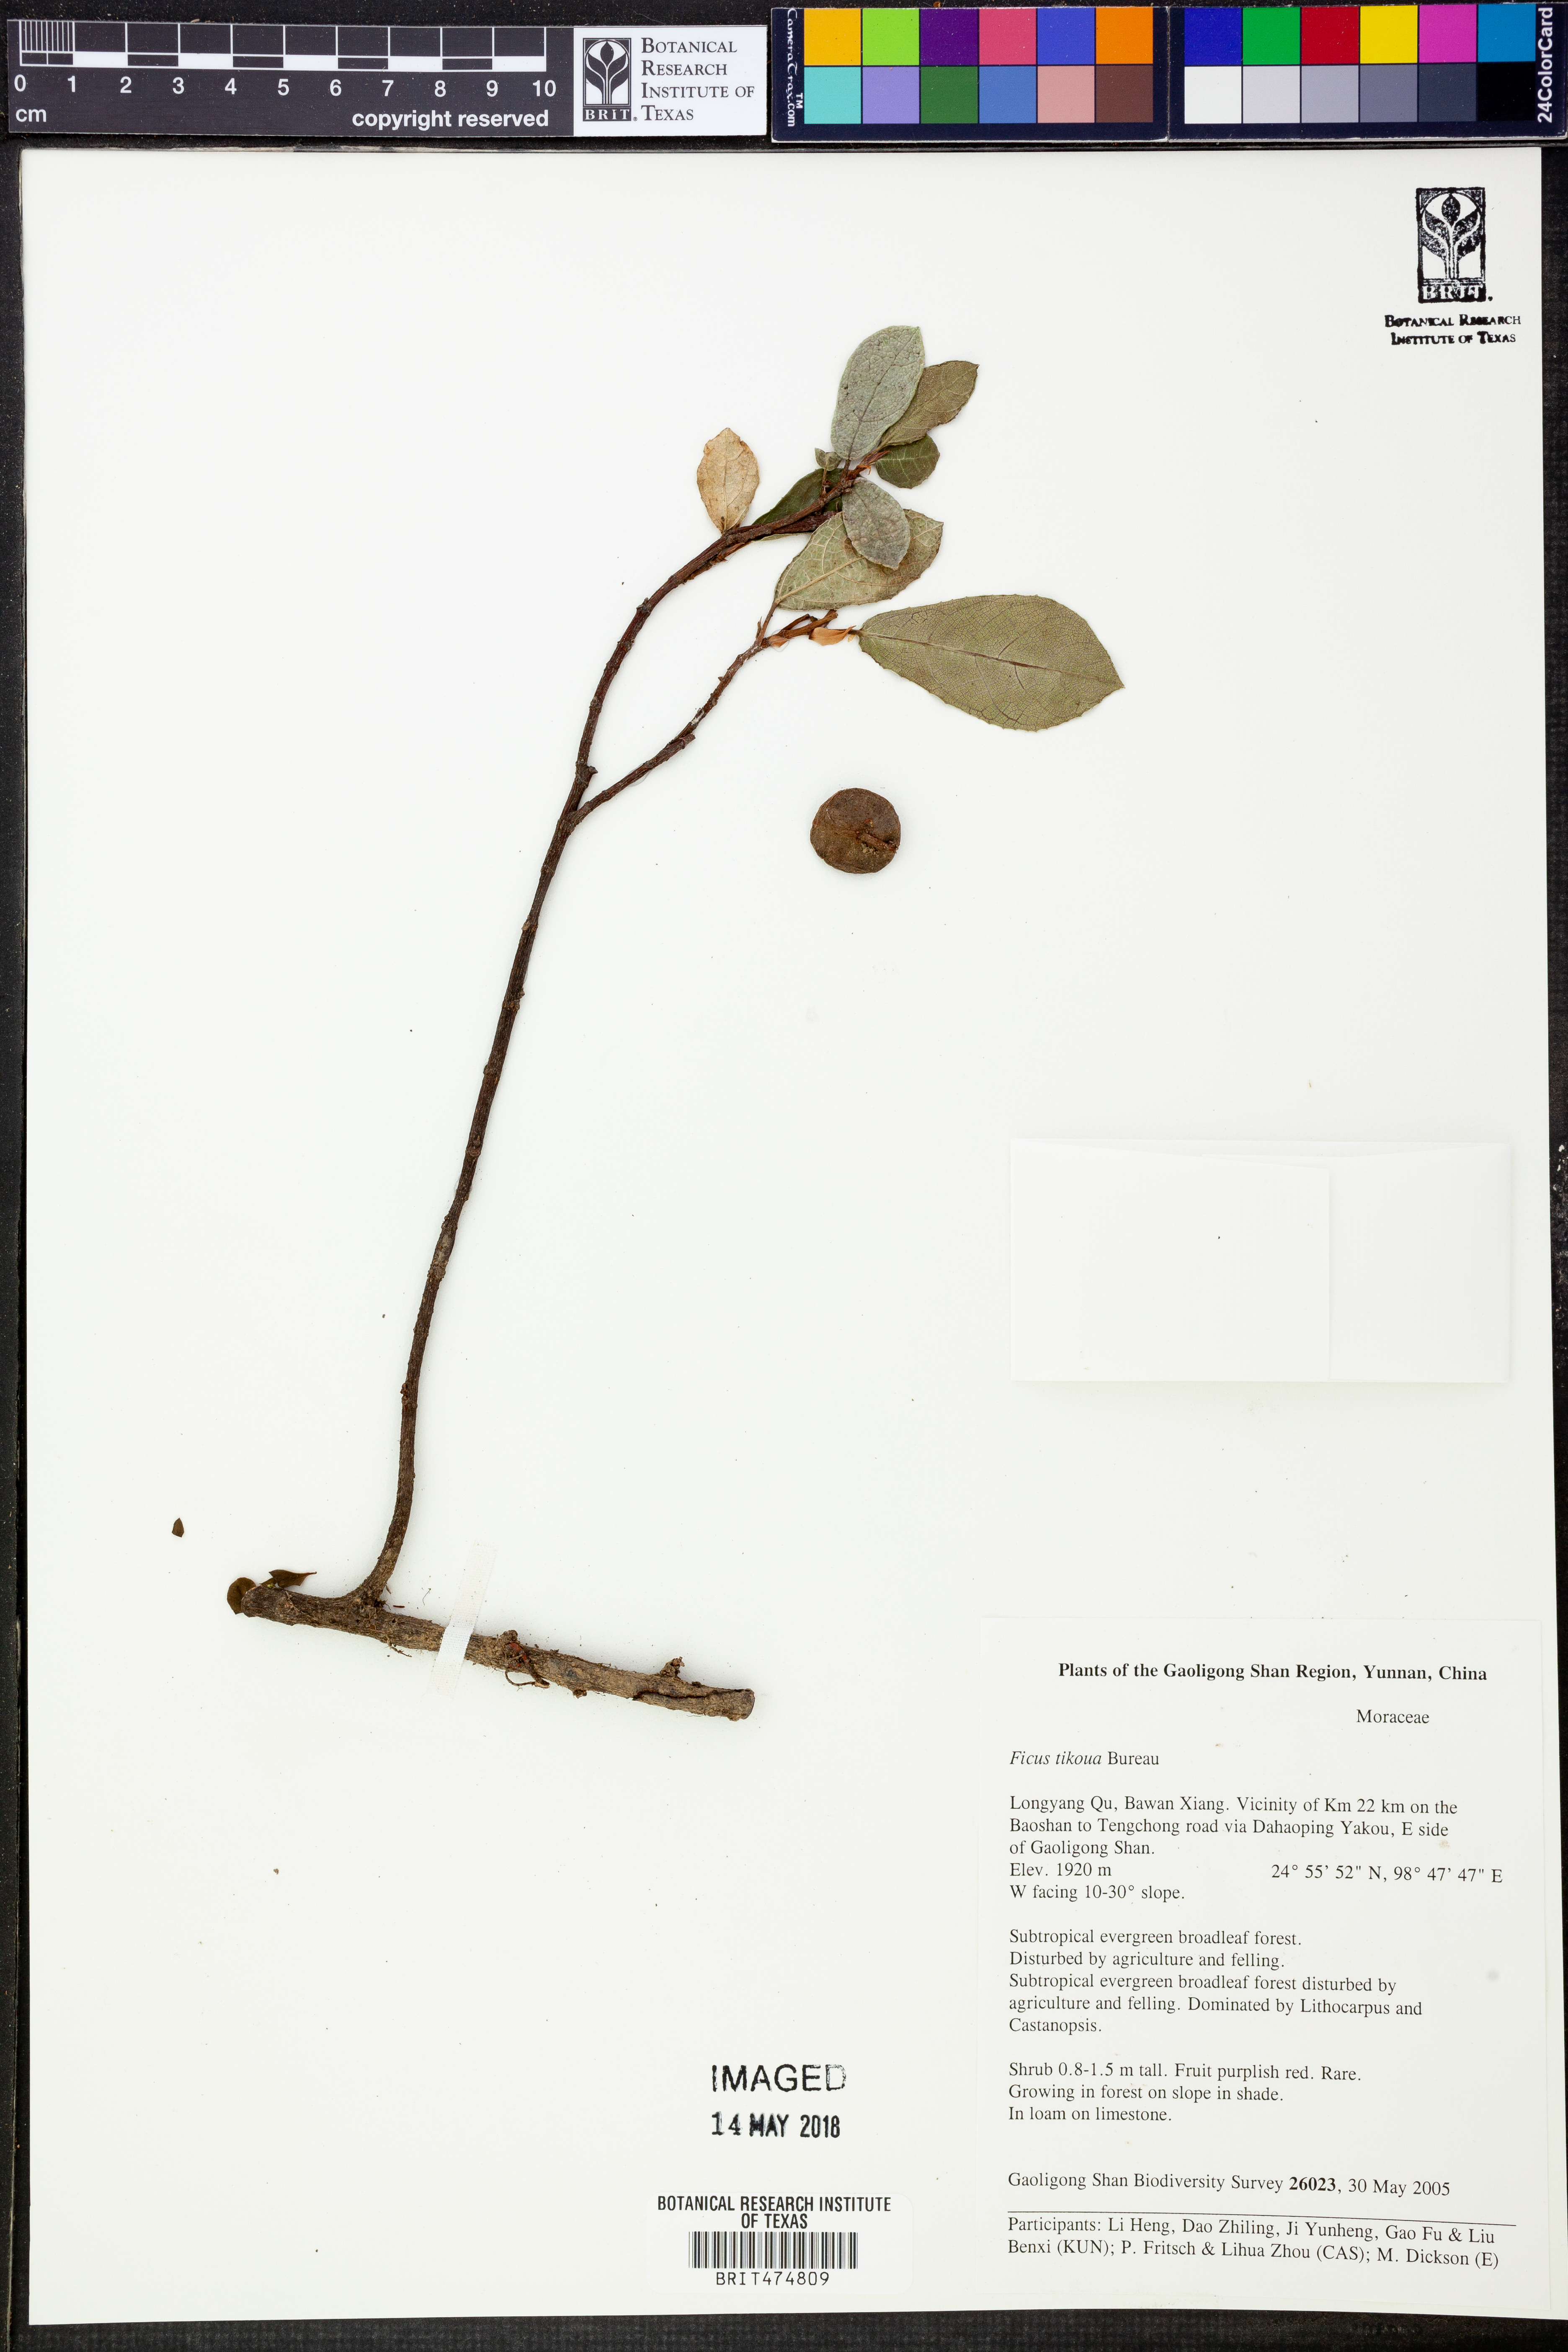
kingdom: Plantae
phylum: Tracheophyta
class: Magnoliopsida
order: Rosales
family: Moraceae
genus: Ficus
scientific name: Ficus tikoua
